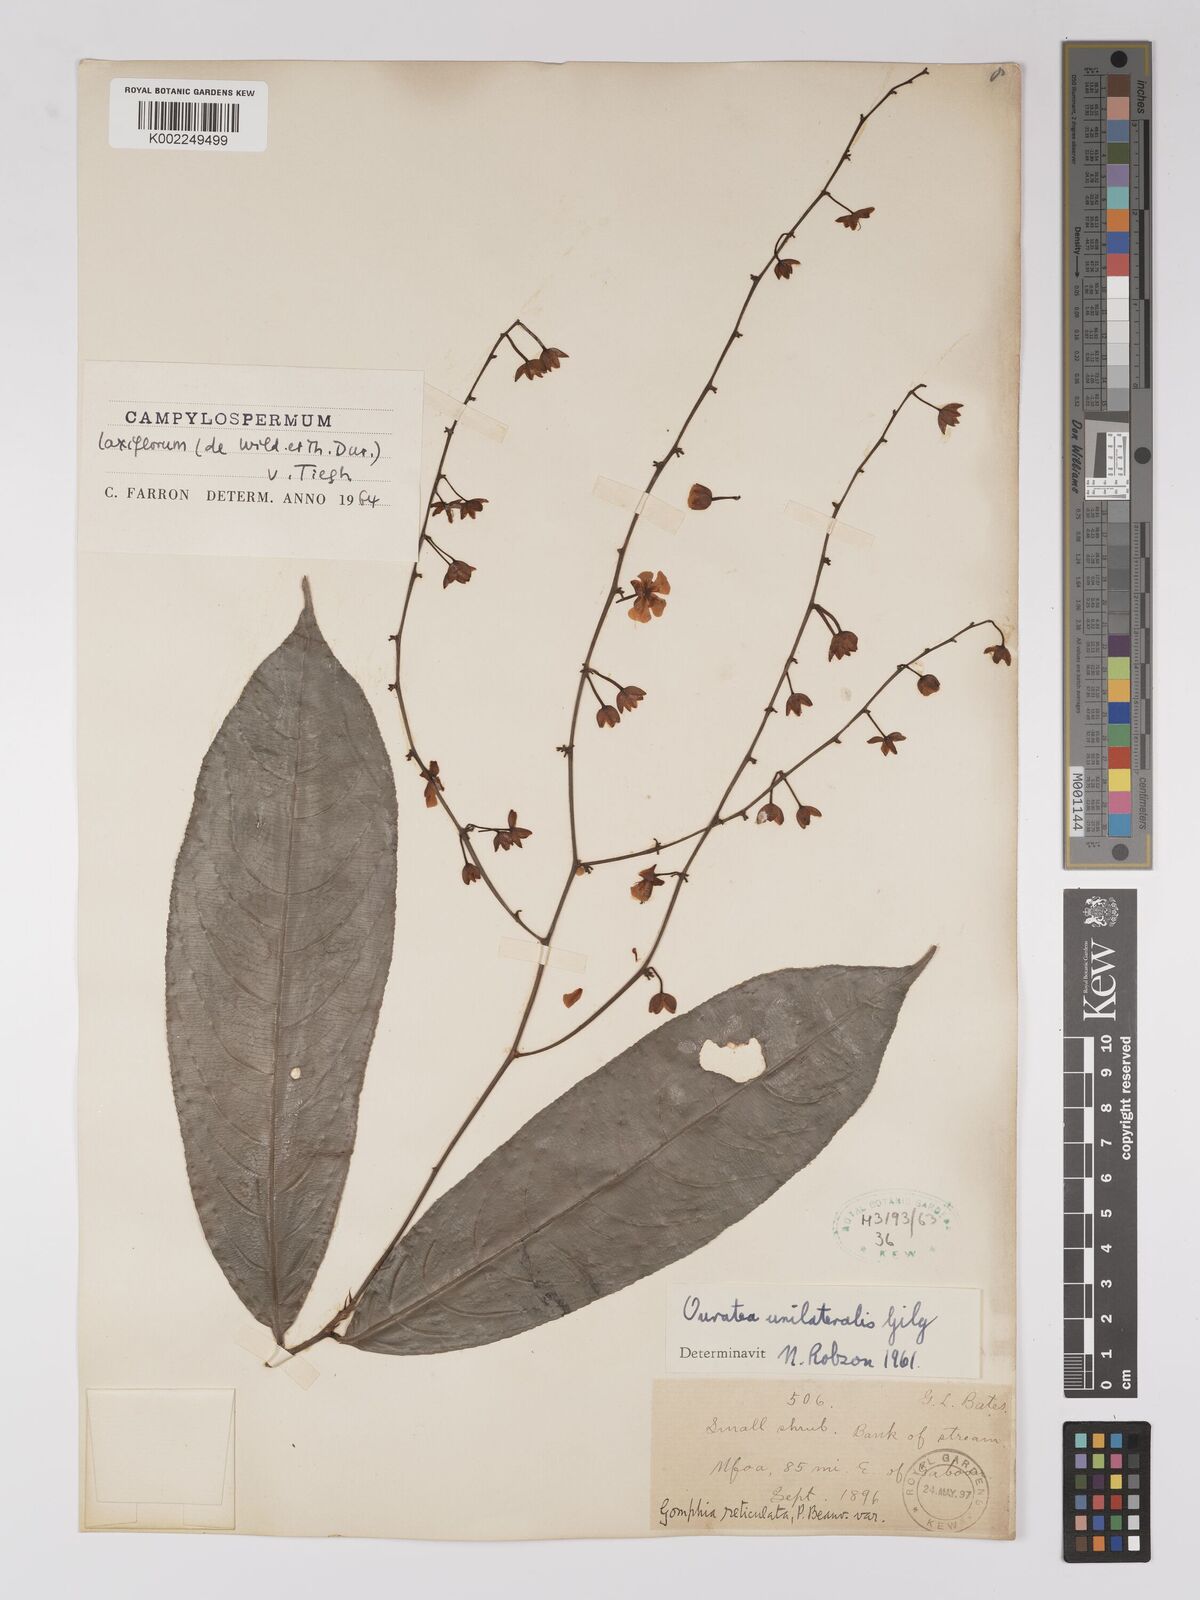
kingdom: Plantae
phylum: Tracheophyta
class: Magnoliopsida
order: Malpighiales
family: Ochnaceae
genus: Campylospermum
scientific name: Campylospermum laxiflorum
